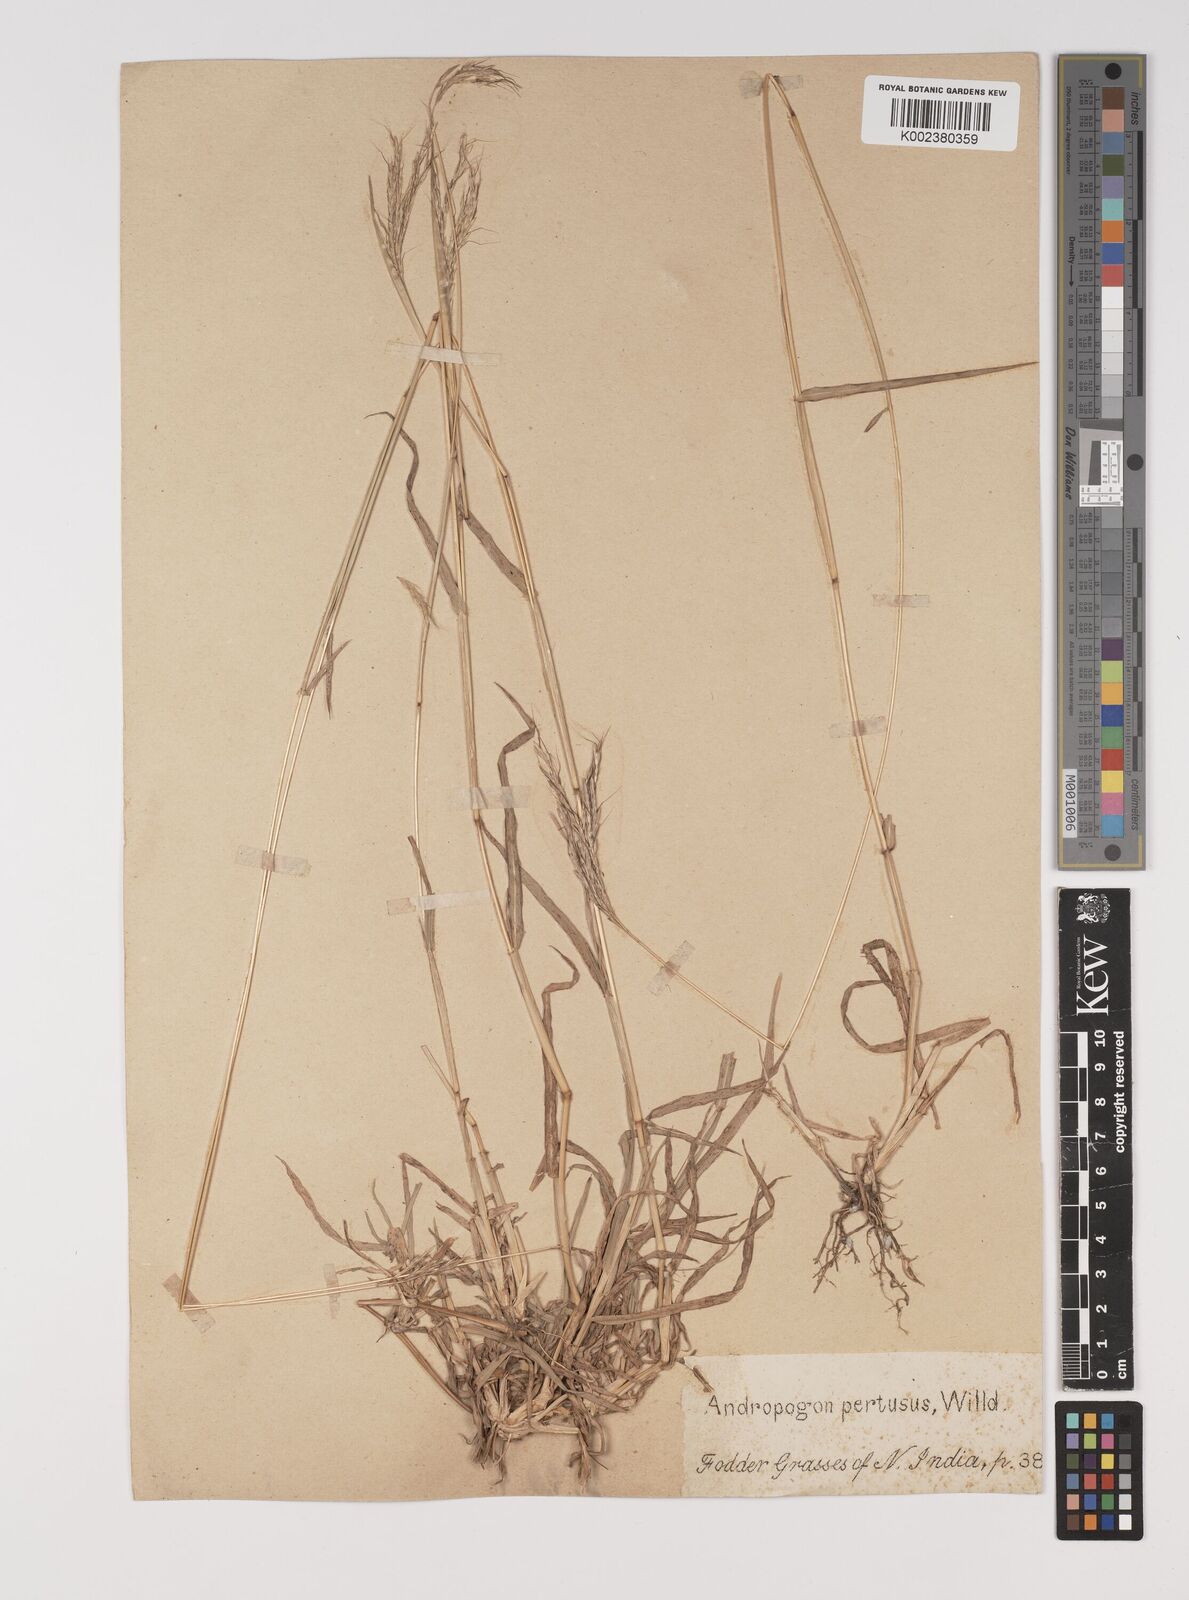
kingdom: Plantae
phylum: Tracheophyta
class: Liliopsida
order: Poales
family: Poaceae
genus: Bothriochloa
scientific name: Bothriochloa pertusa
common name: Pitted beardgrass
